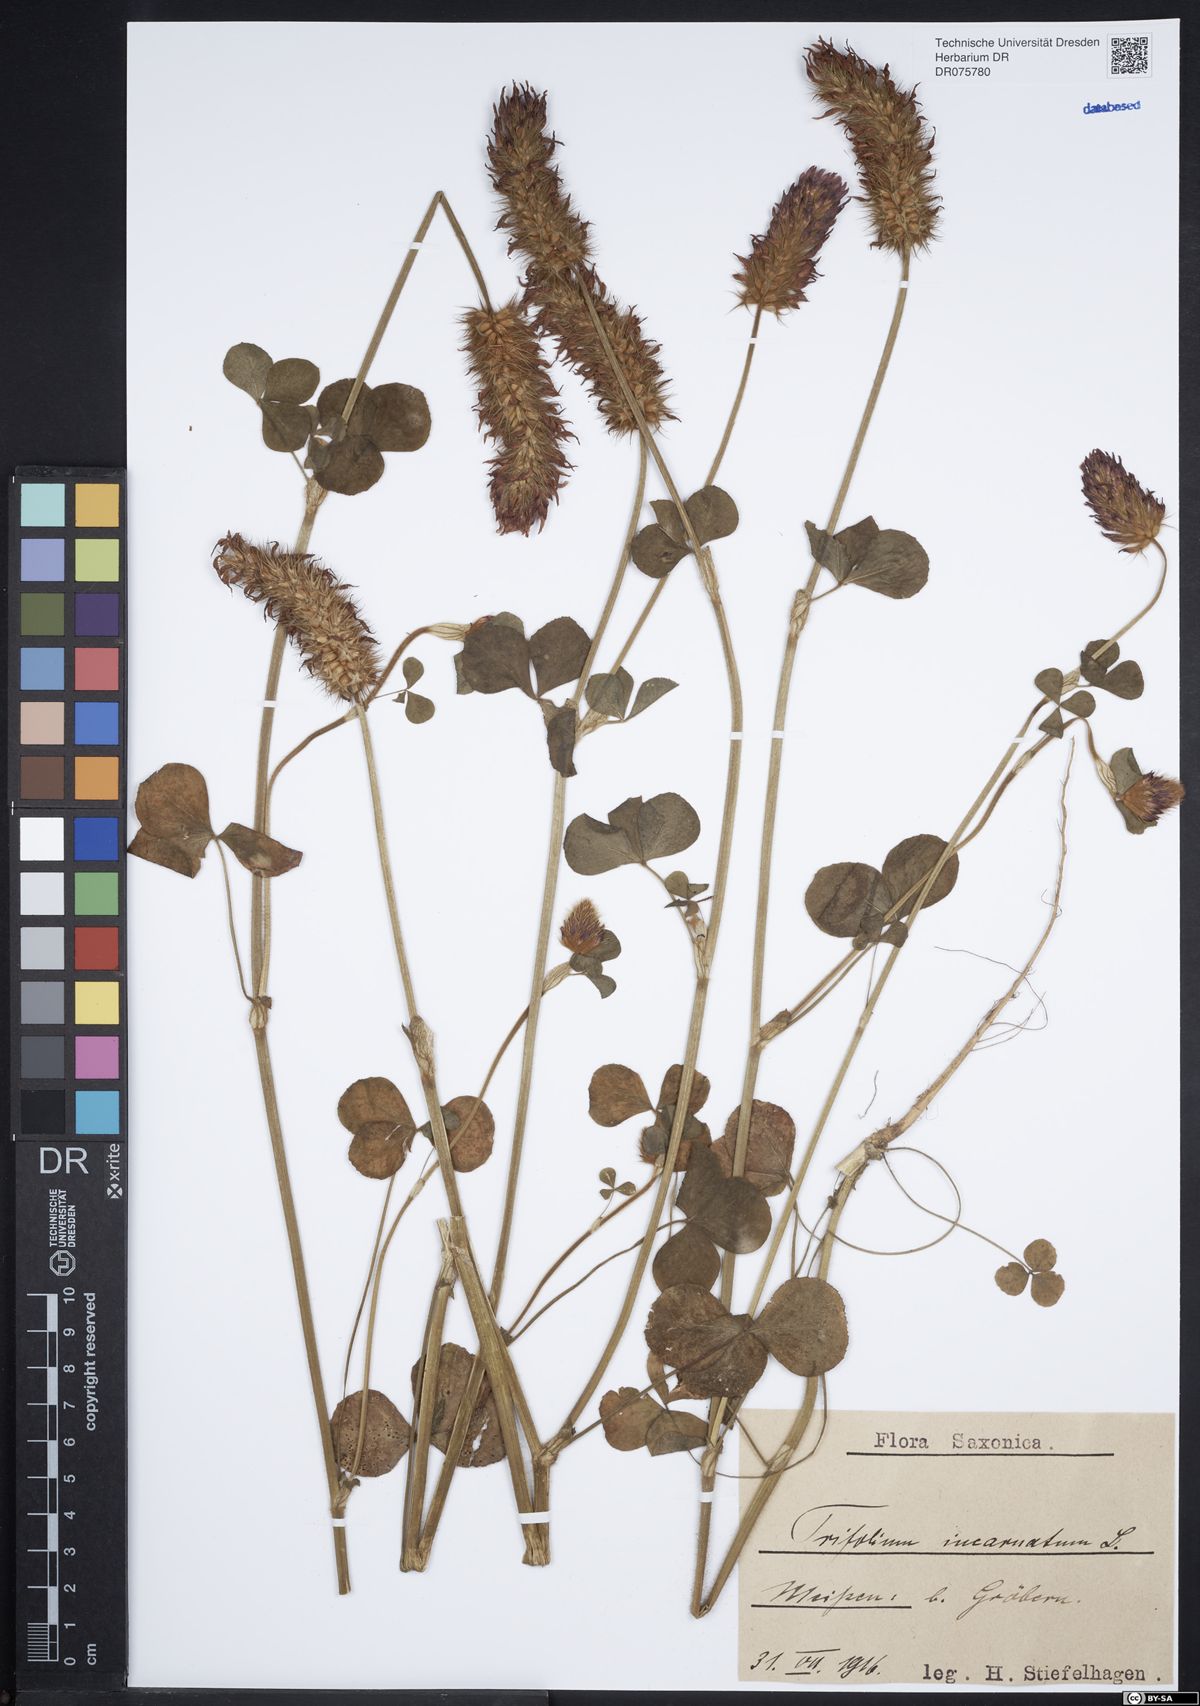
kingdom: Plantae
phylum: Tracheophyta
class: Magnoliopsida
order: Fabales
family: Fabaceae
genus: Trifolium
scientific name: Trifolium incarnatum
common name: Crimson clover
